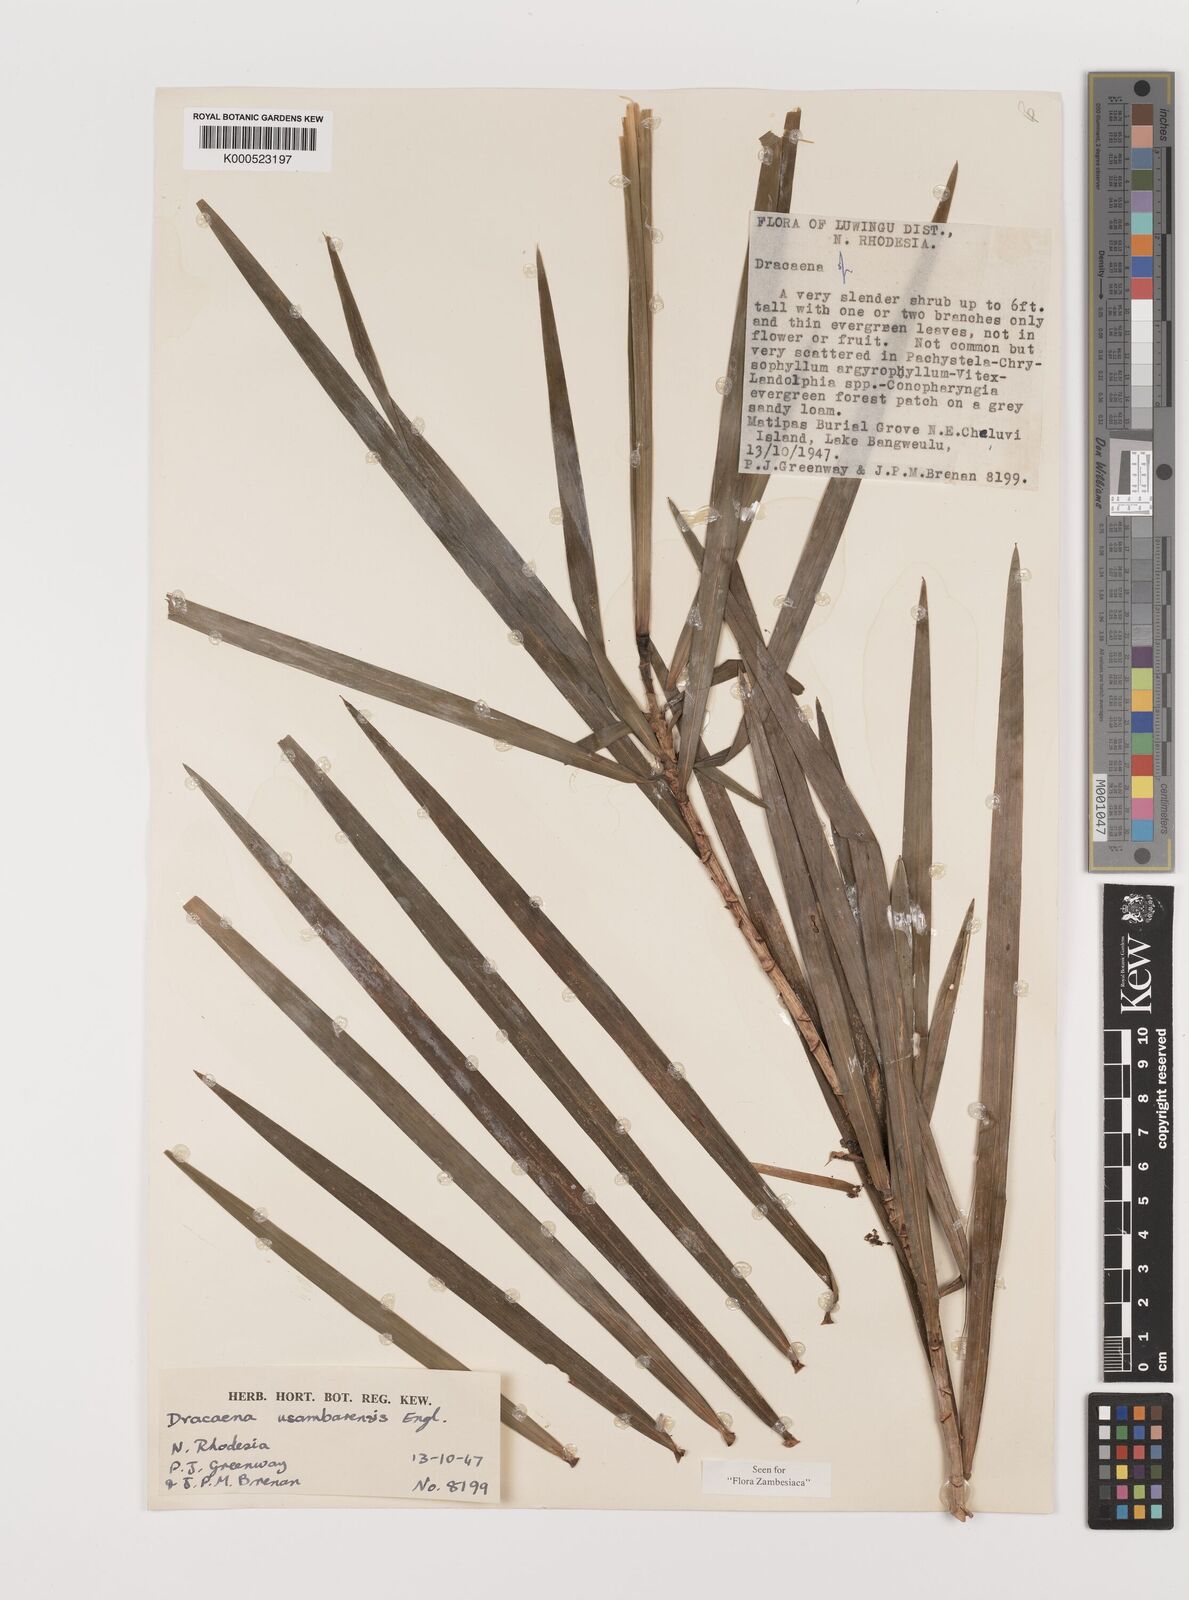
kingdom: Plantae
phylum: Tracheophyta
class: Liliopsida
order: Asparagales
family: Asparagaceae
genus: Dracaena
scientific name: Dracaena usambarensis
